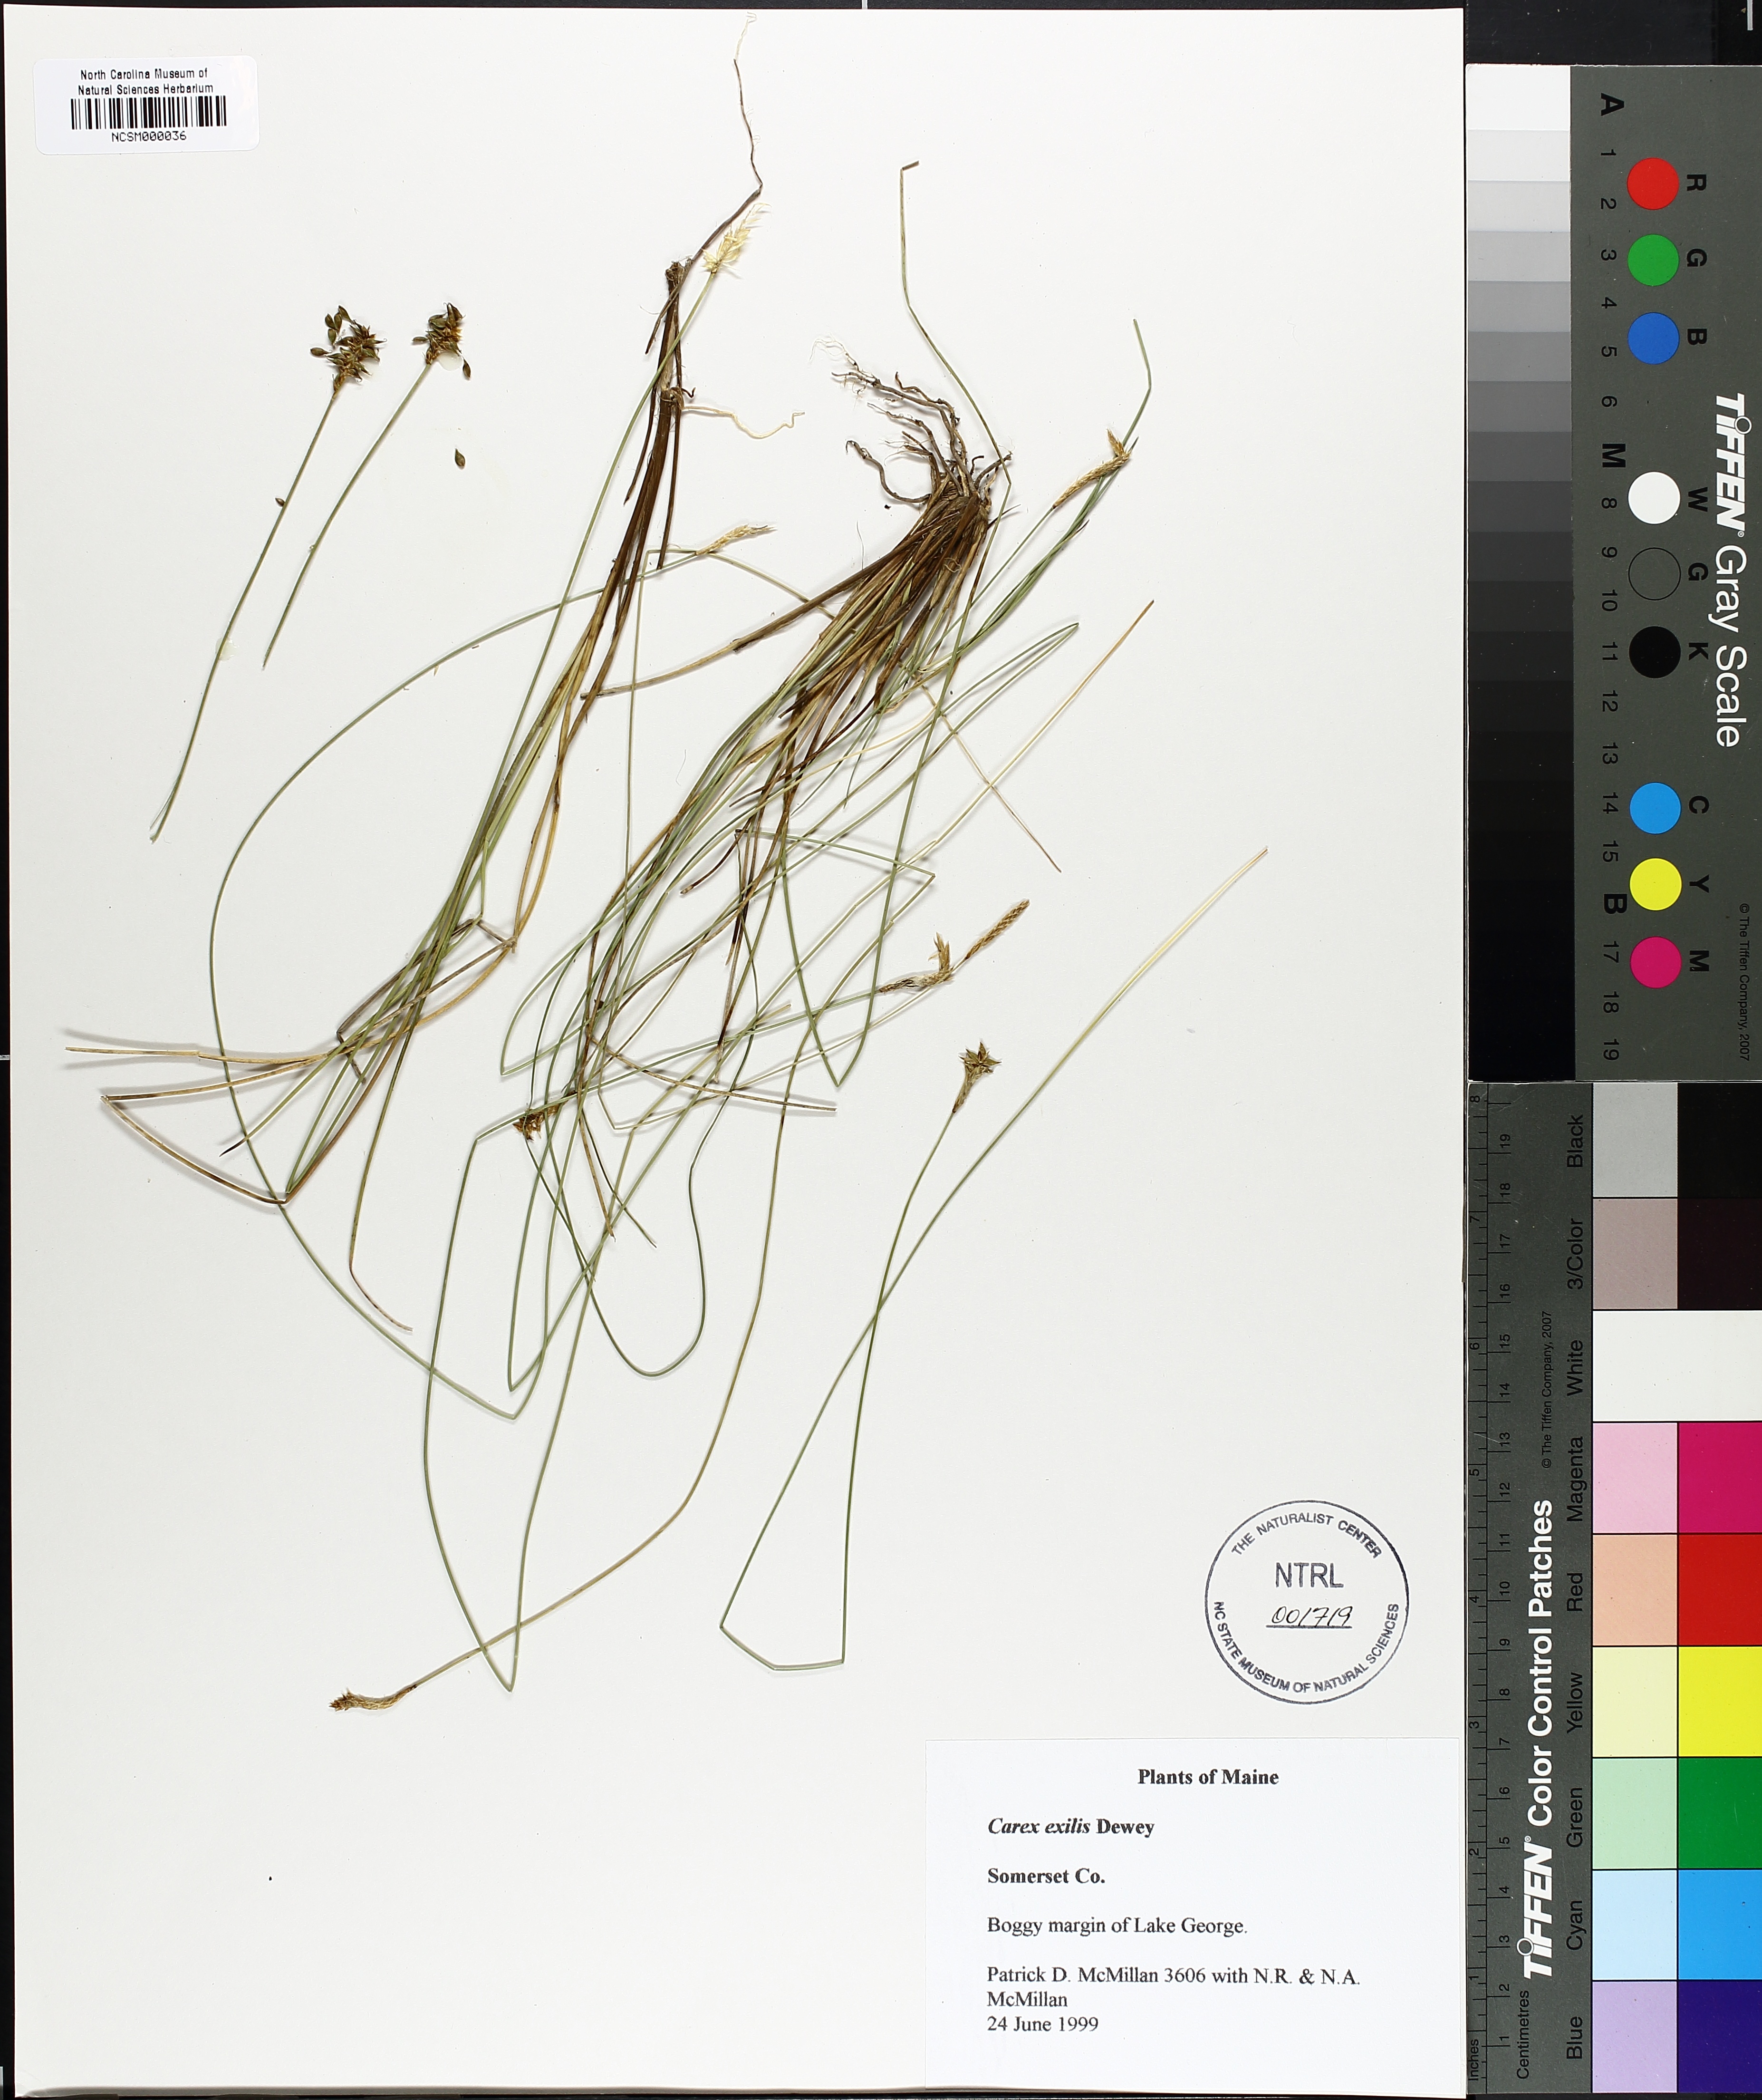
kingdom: Plantae
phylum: Tracheophyta
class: Liliopsida
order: Poales
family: Cyperaceae
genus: Carex
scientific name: Carex exilis
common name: Coastal sedge
